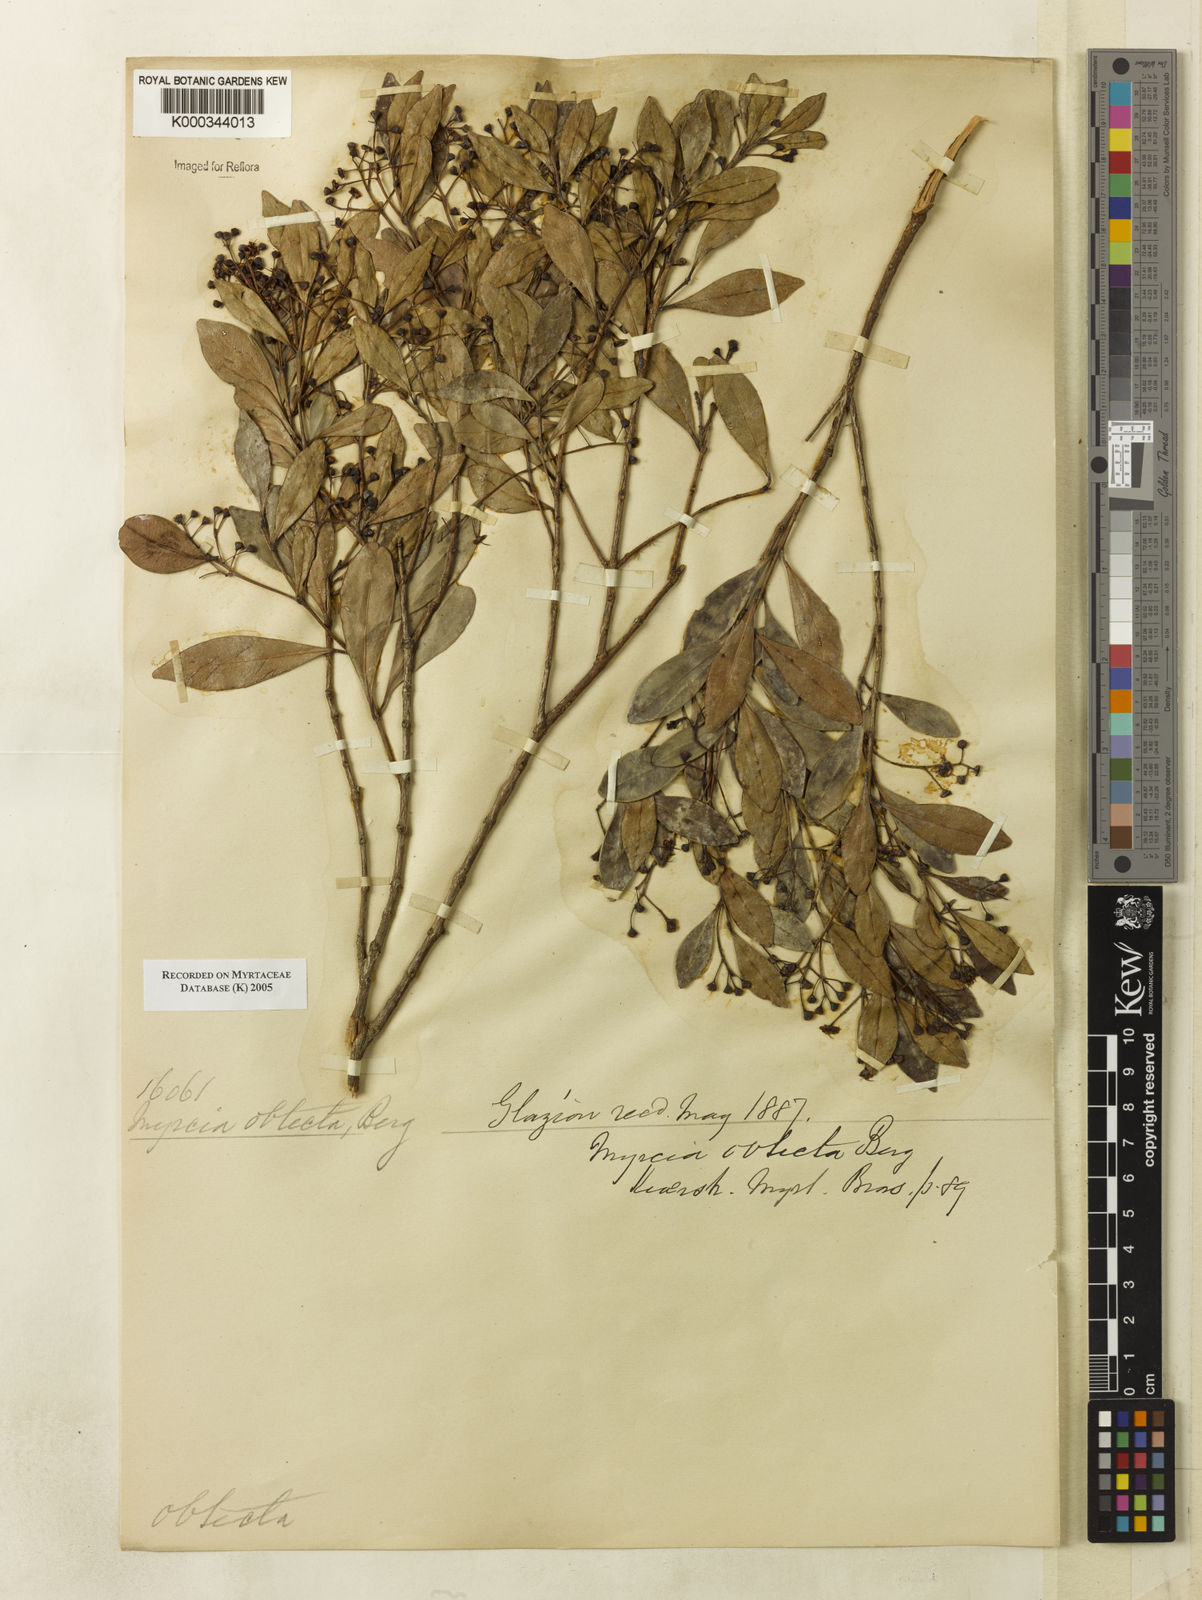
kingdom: Plantae
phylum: Tracheophyta
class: Magnoliopsida
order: Myrtales
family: Myrtaceae
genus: Myrcia
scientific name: Myrcia guianensis
